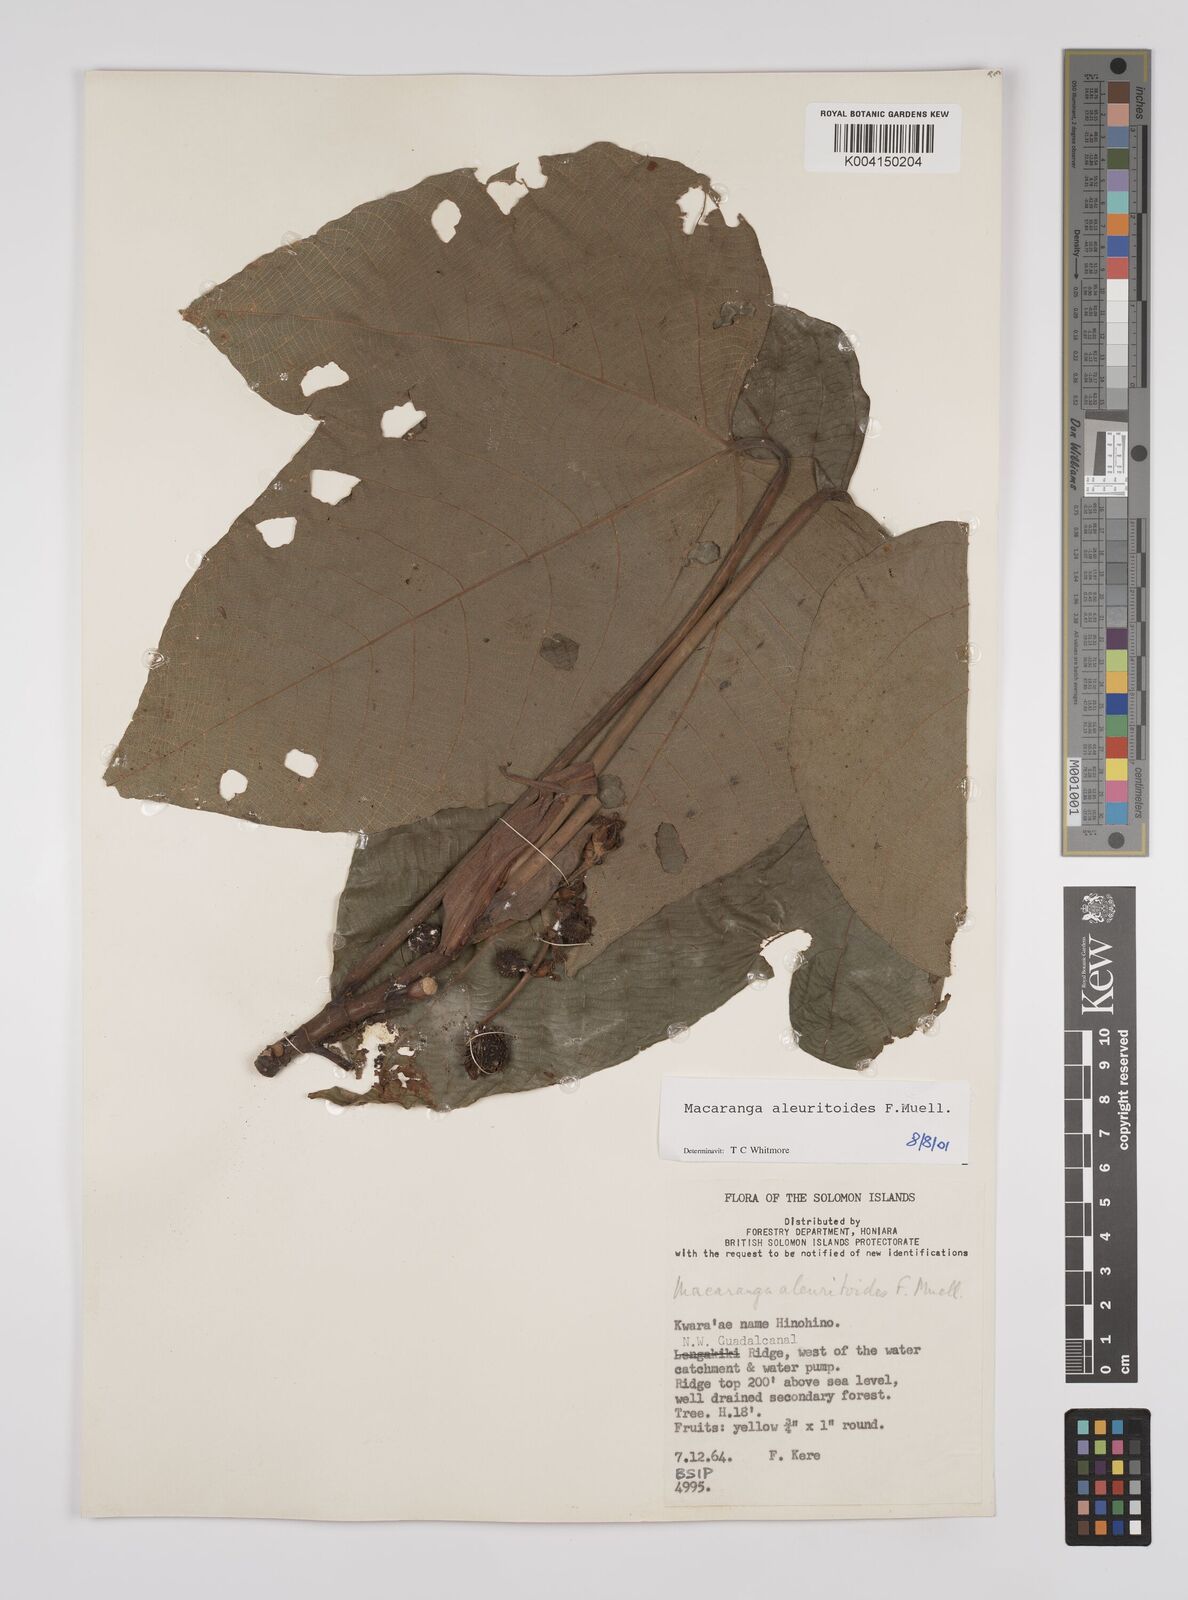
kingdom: Plantae
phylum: Tracheophyta
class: Magnoliopsida
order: Malpighiales
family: Euphorbiaceae
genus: Macaranga
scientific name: Macaranga aleuritoides
